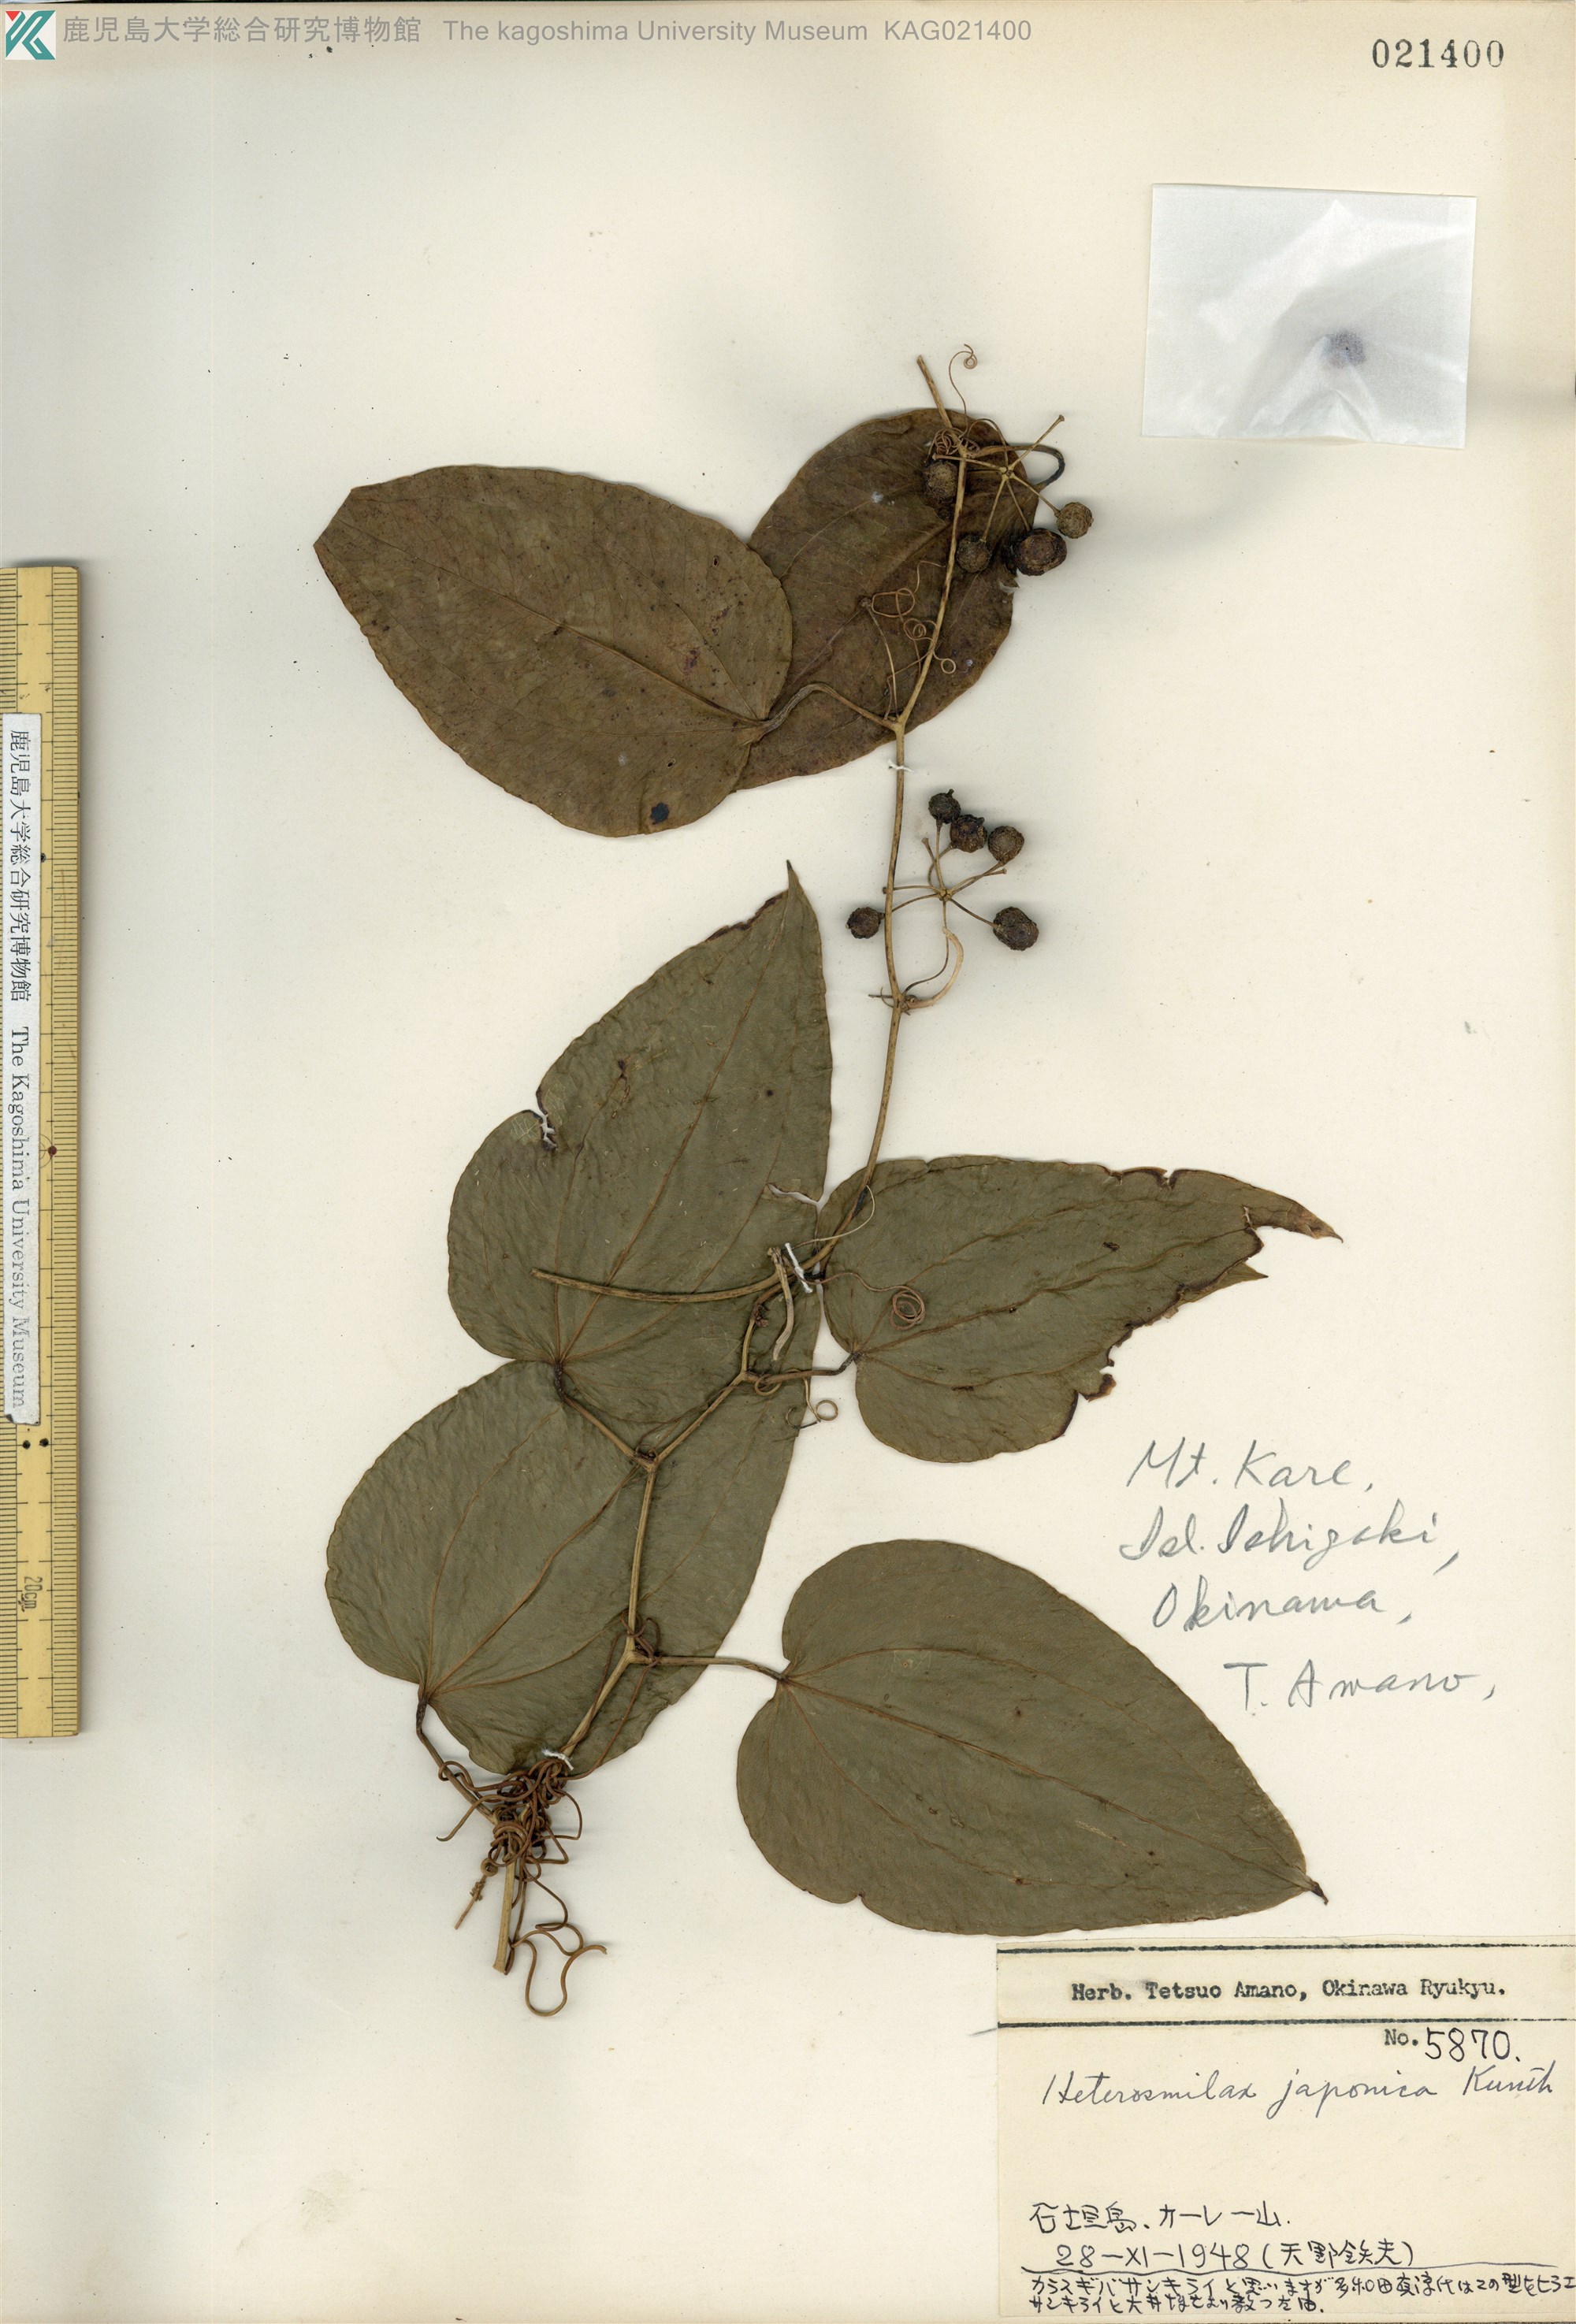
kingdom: Plantae
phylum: Tracheophyta
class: Liliopsida
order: Liliales
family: Smilacaceae
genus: Smilax
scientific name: Smilax insularis
